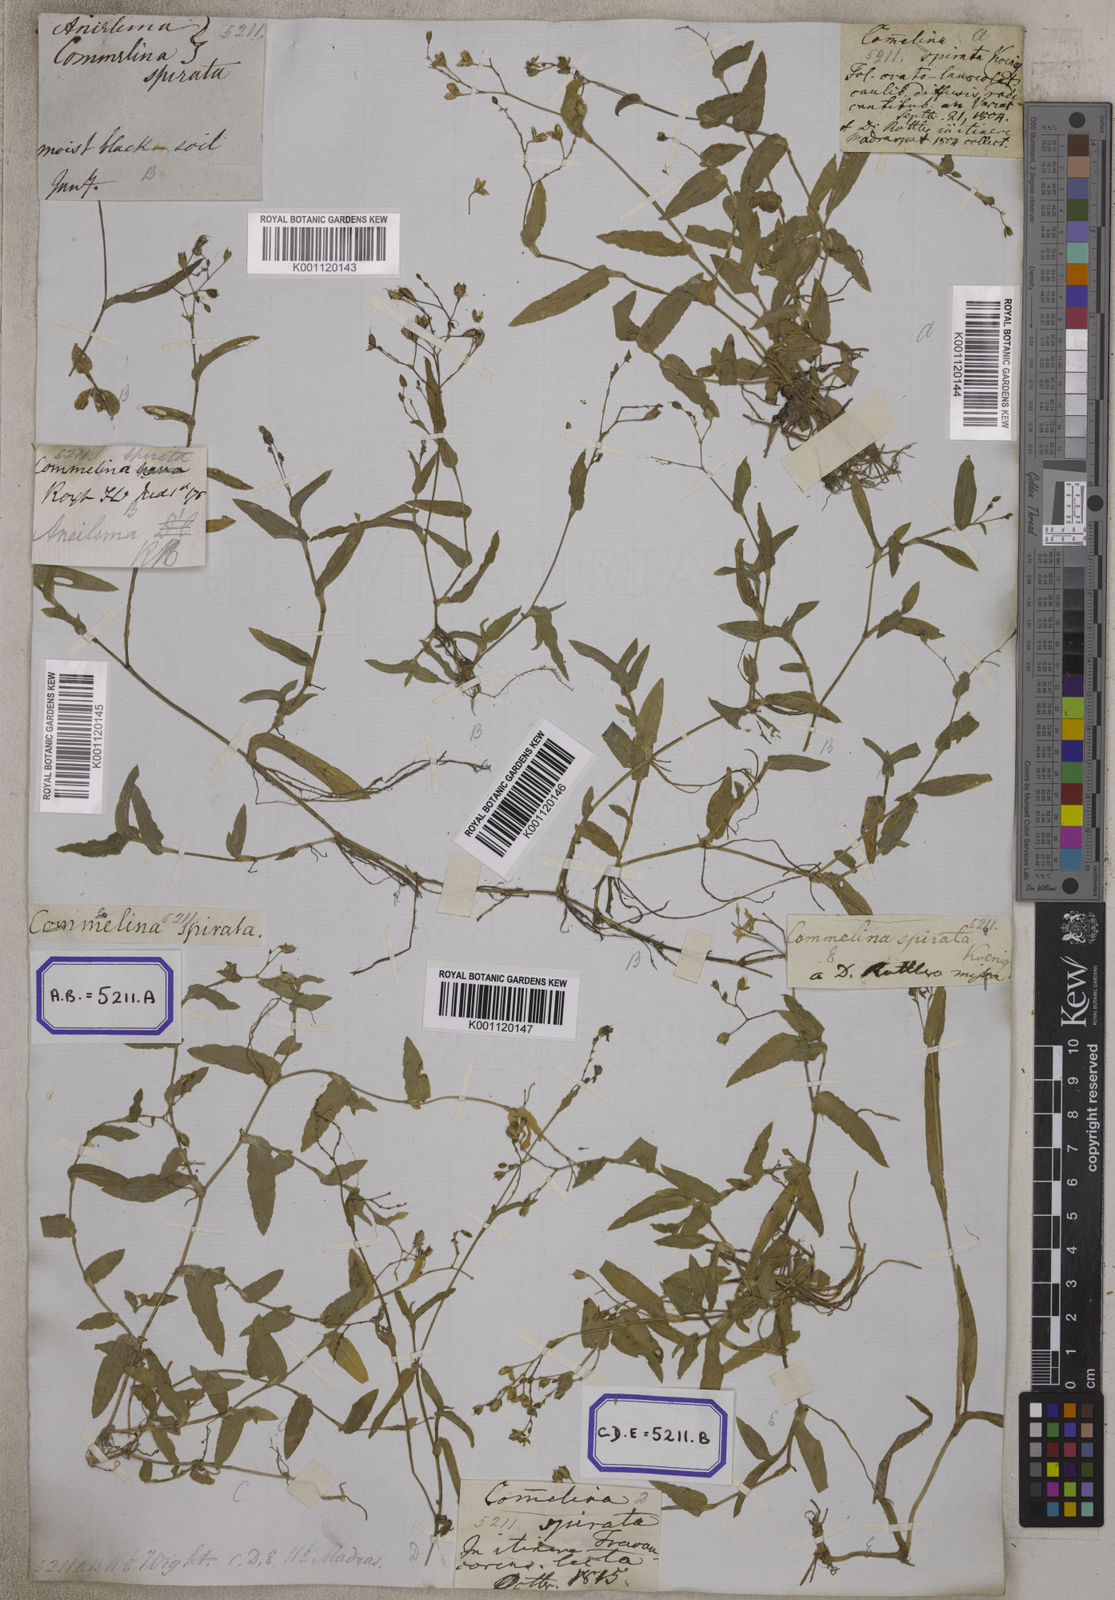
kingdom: Plantae
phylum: Tracheophyta
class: Liliopsida
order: Commelinales
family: Commelinaceae
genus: Aneilema
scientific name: Aneilema
